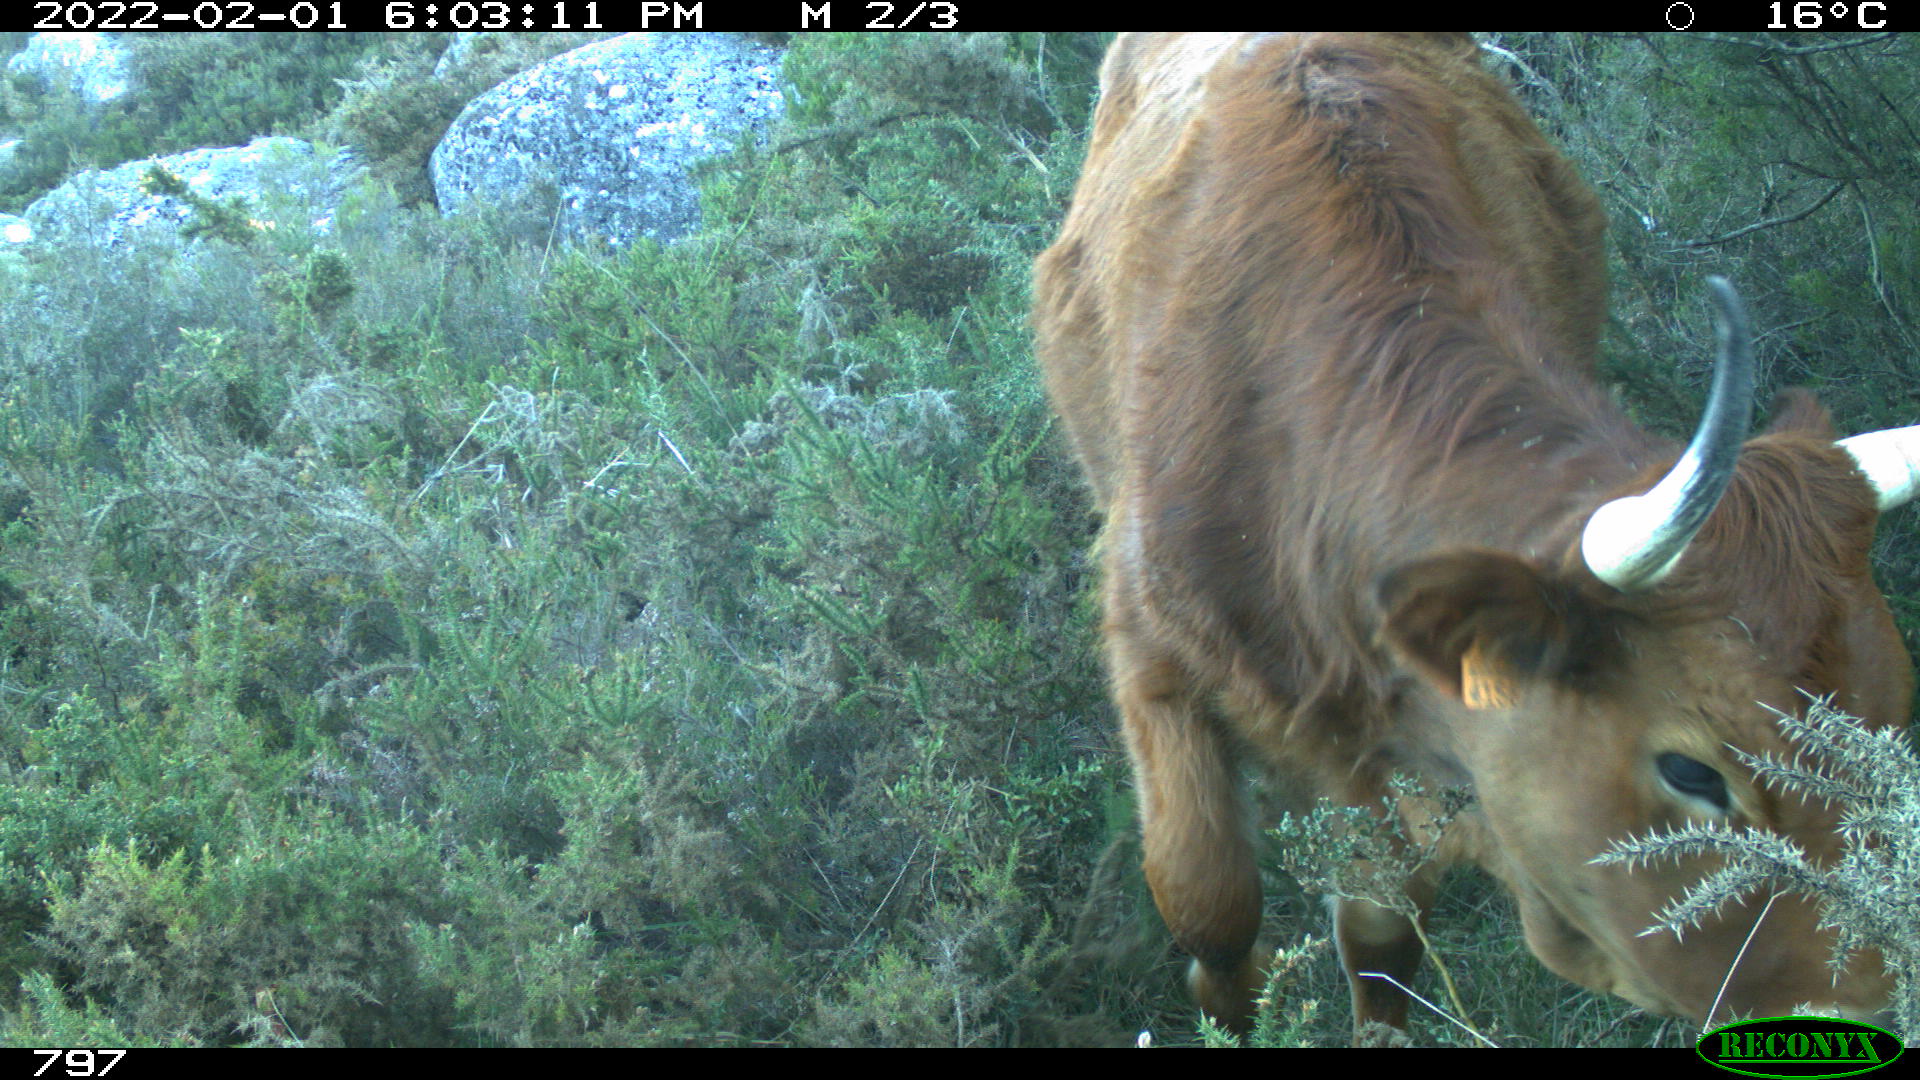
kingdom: Animalia
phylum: Chordata
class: Mammalia
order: Artiodactyla
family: Bovidae
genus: Bos
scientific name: Bos taurus
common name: Domesticated cattle
